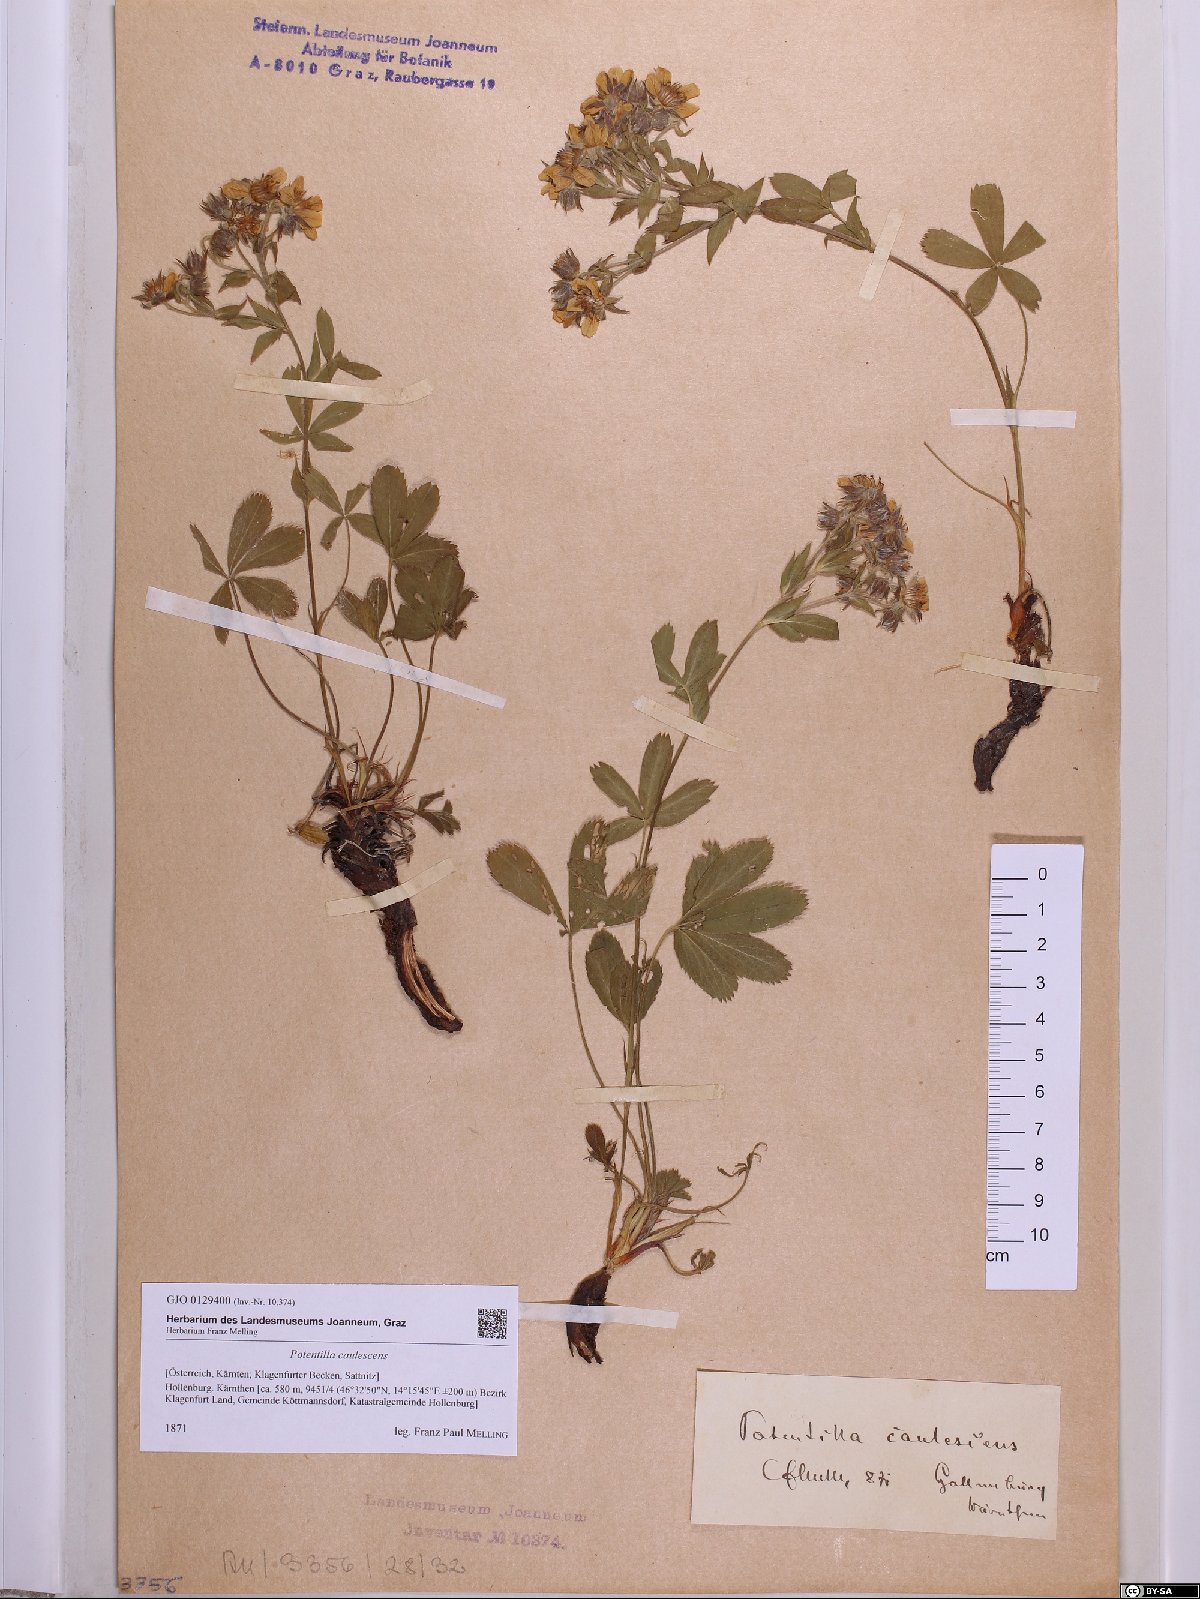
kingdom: Plantae
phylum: Tracheophyta
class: Magnoliopsida
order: Rosales
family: Rosaceae
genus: Potentilla
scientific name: Potentilla caulescens
